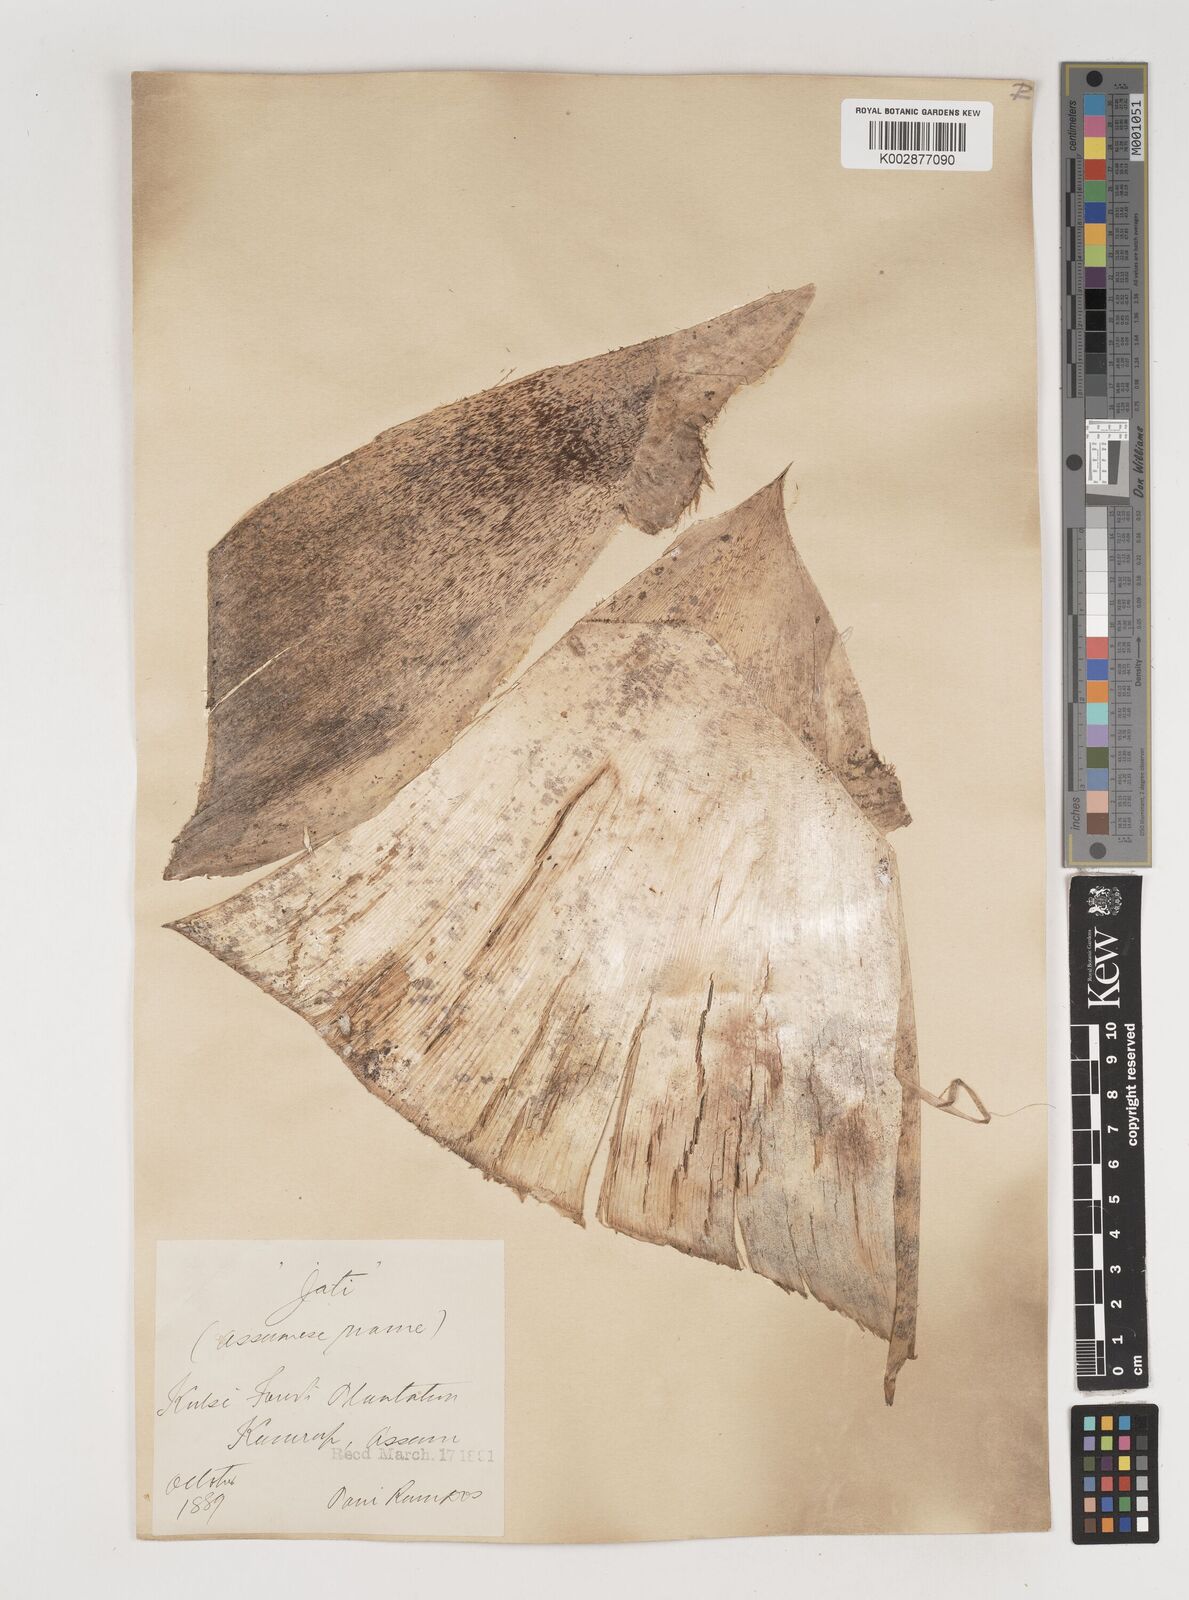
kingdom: Plantae
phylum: Tracheophyta
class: Liliopsida
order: Poales
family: Poaceae
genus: Bambusa
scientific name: Bambusa
